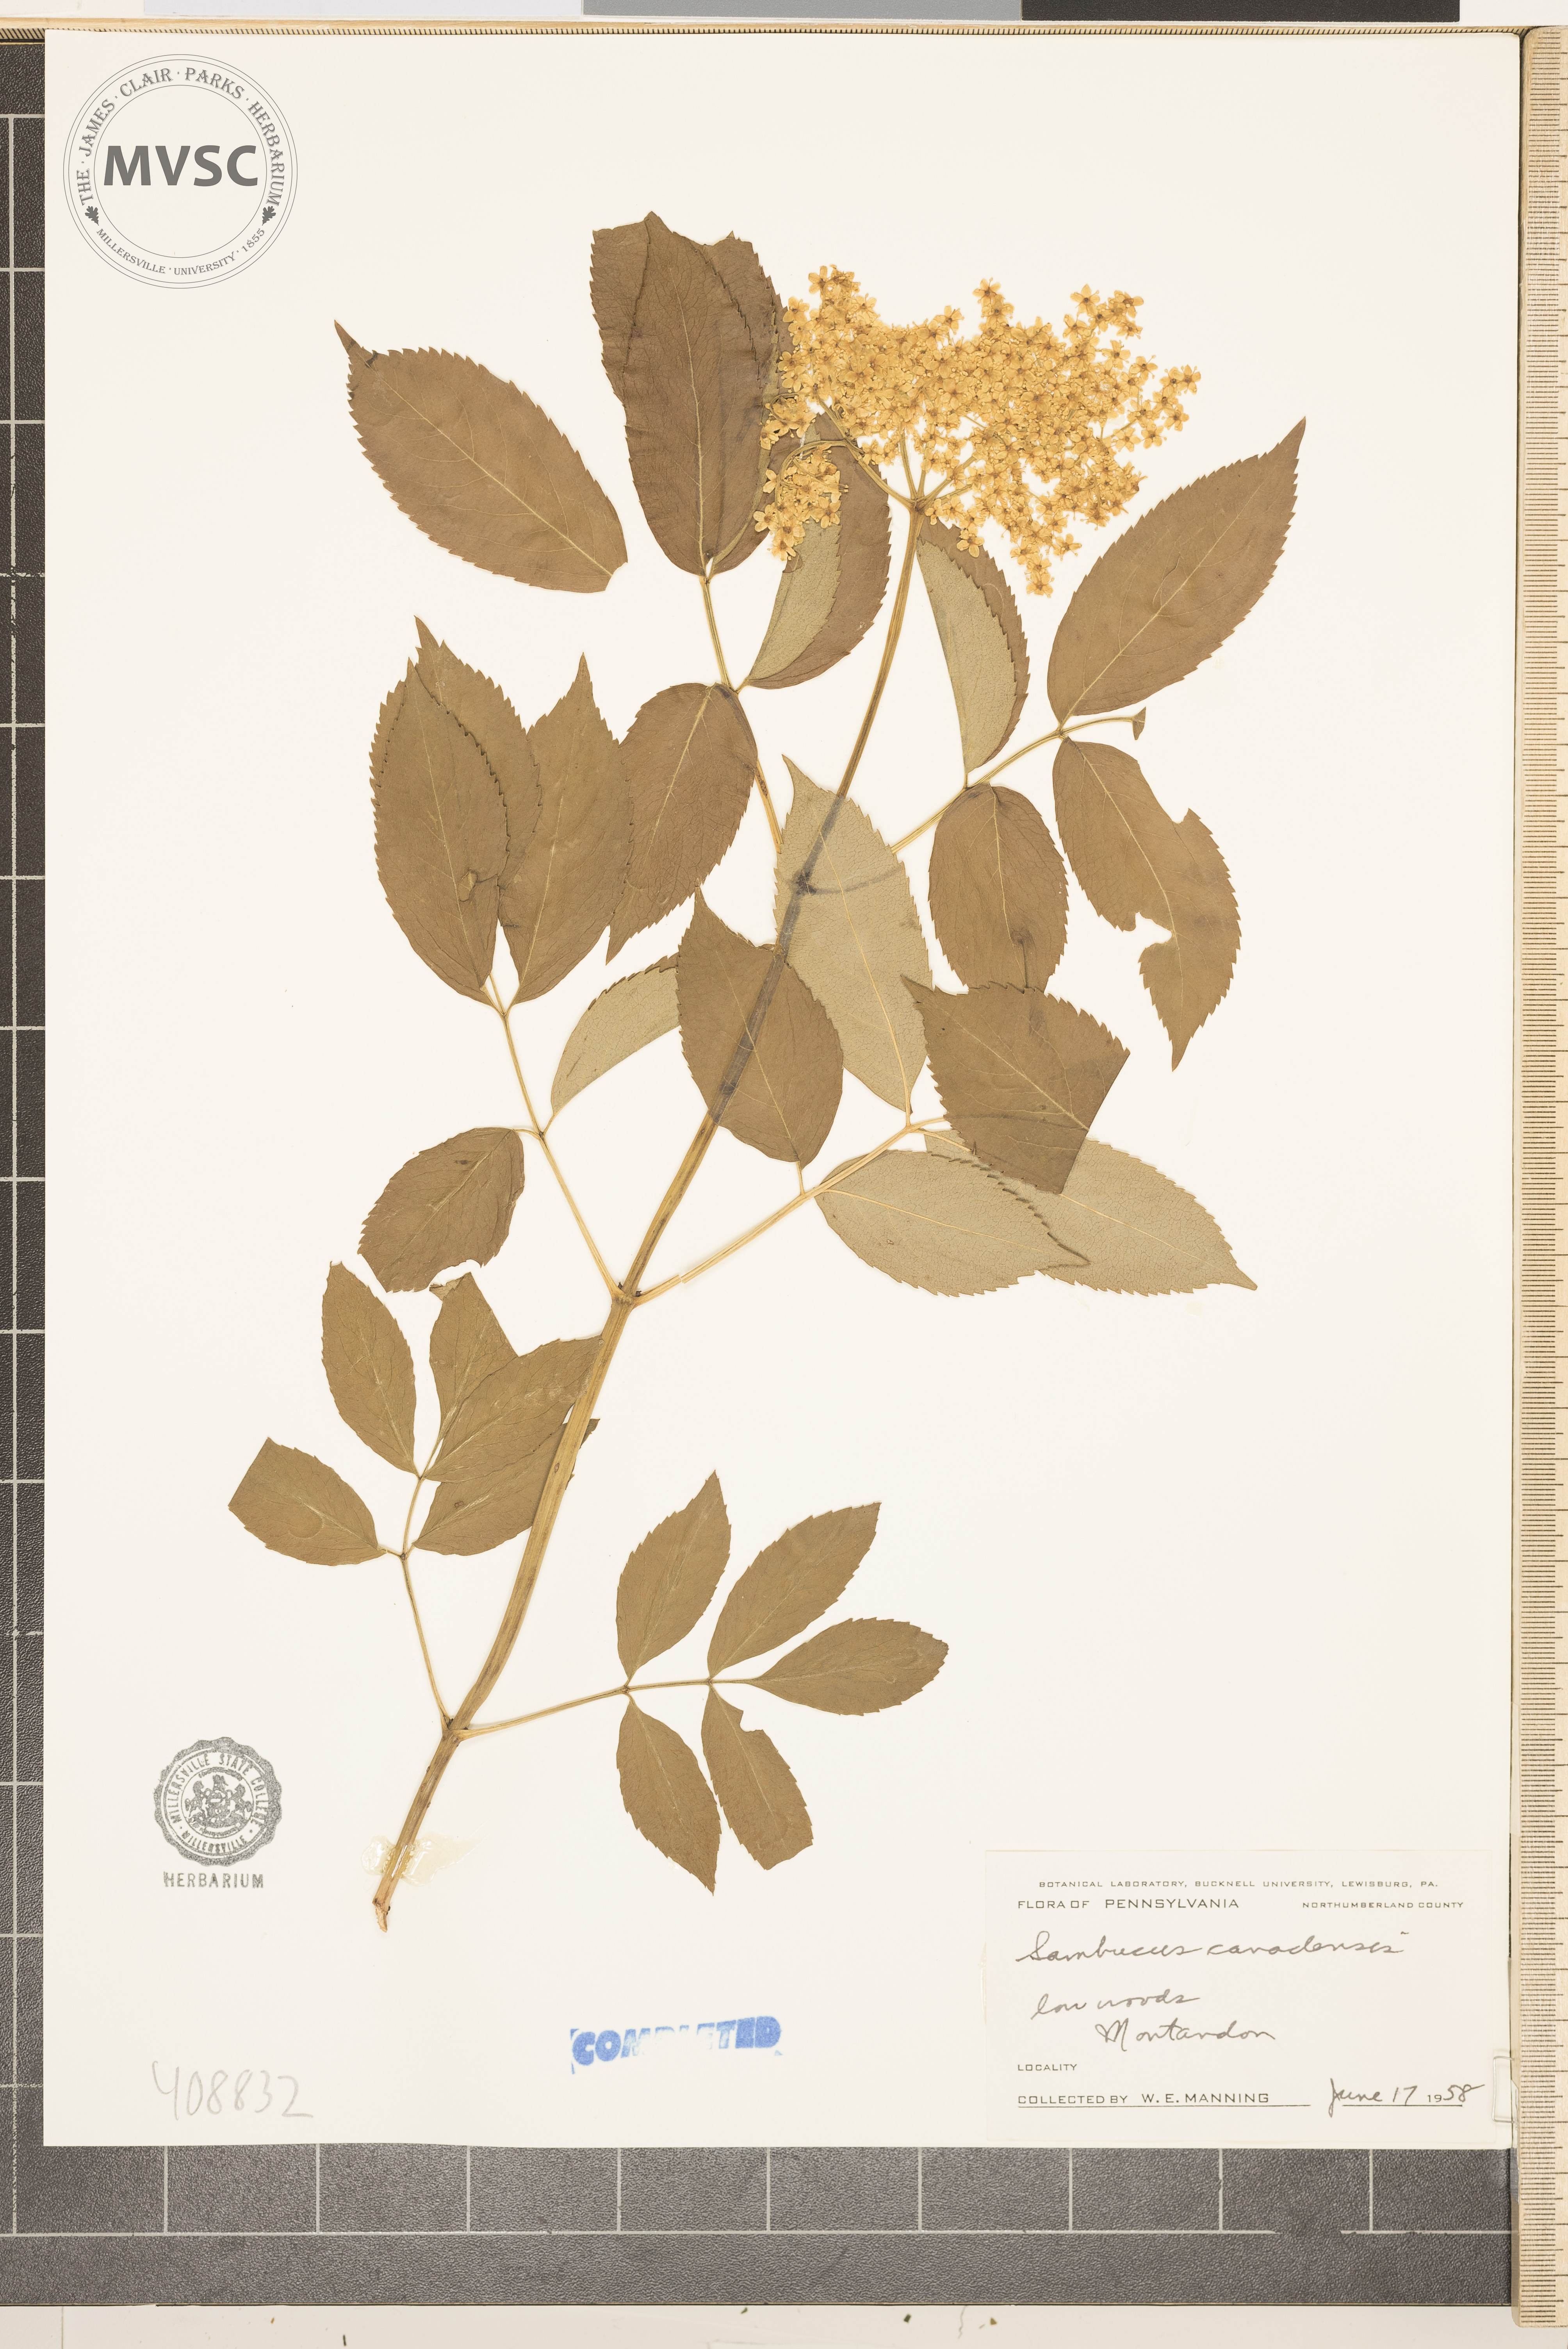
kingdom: Plantae
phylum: Tracheophyta
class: Magnoliopsida
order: Dipsacales
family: Viburnaceae
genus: Sambucus
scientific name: Sambucus canadensis
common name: American elder
